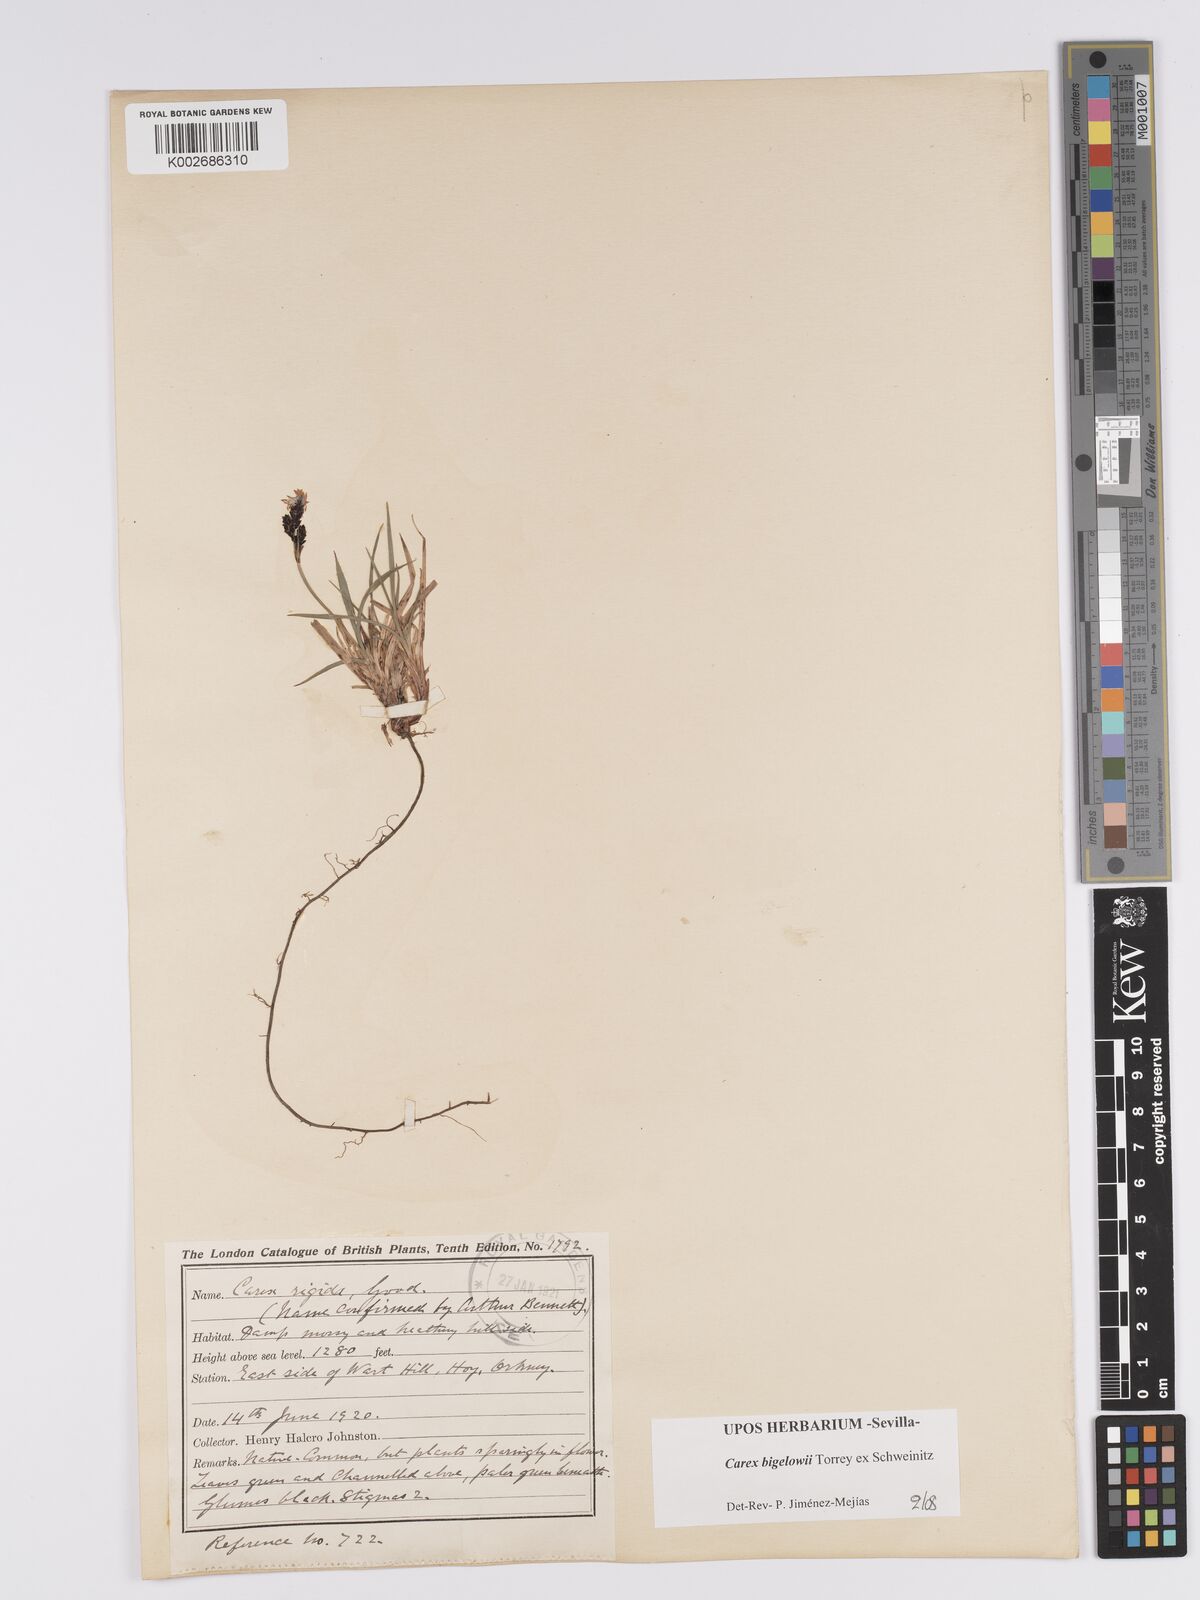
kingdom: Plantae
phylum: Tracheophyta
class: Liliopsida
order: Poales
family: Cyperaceae
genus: Carex
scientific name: Carex bigelowii
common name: Stiff sedge
